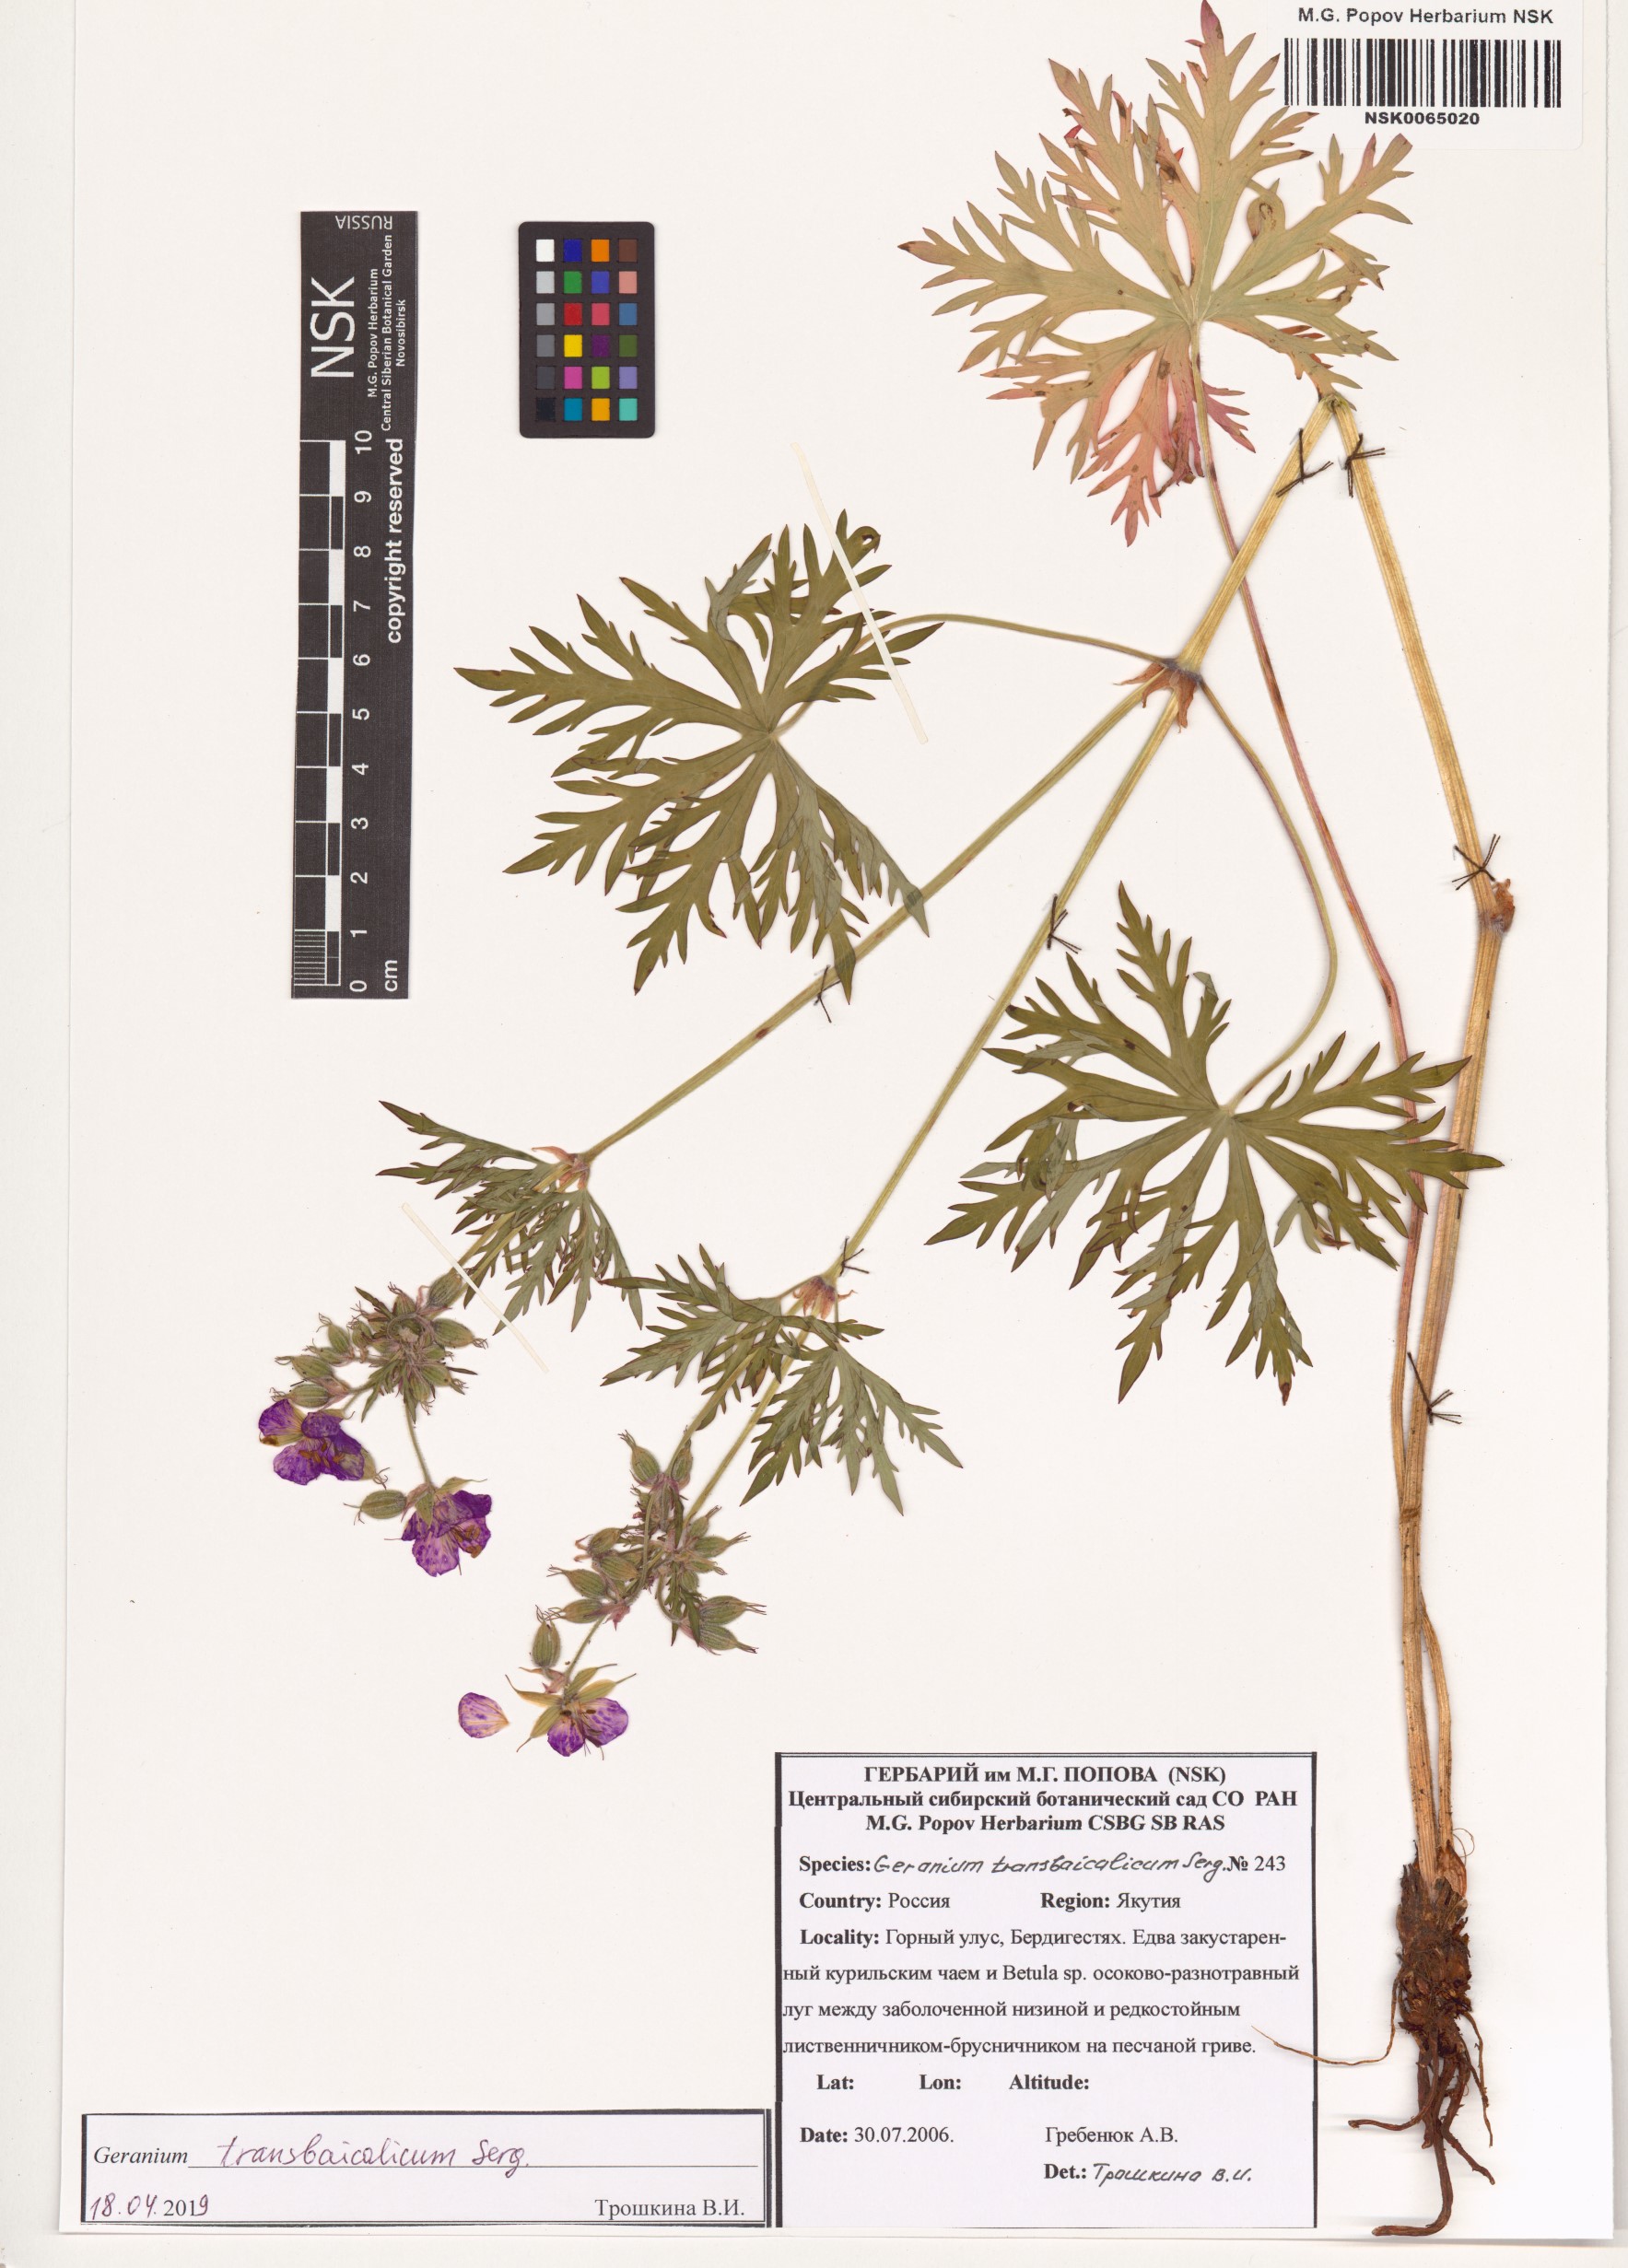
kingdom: Plantae
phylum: Tracheophyta
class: Magnoliopsida
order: Geraniales
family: Geraniaceae
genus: Geranium
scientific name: Geranium pratense
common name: Meadow crane's-bill
